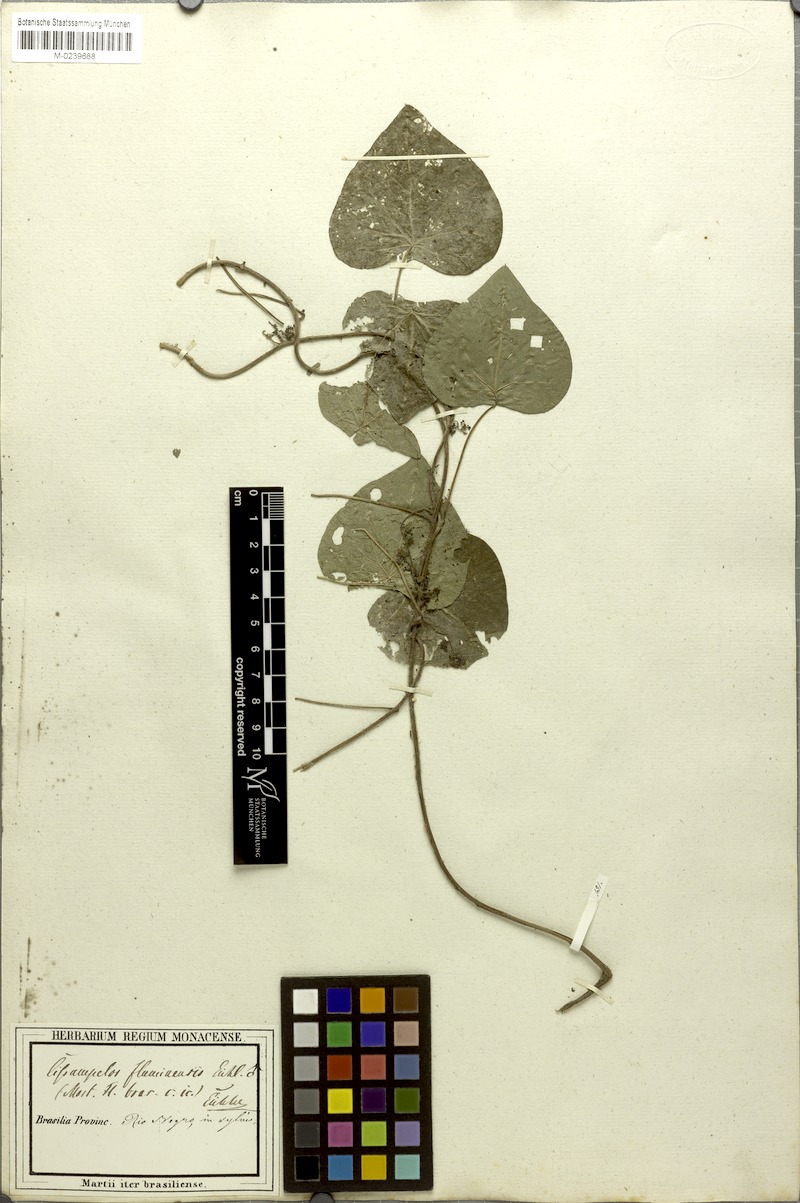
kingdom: Plantae
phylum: Tracheophyta
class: Magnoliopsida
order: Ranunculales
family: Menispermaceae
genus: Cissampelos
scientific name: Cissampelos tropaeolifolia
